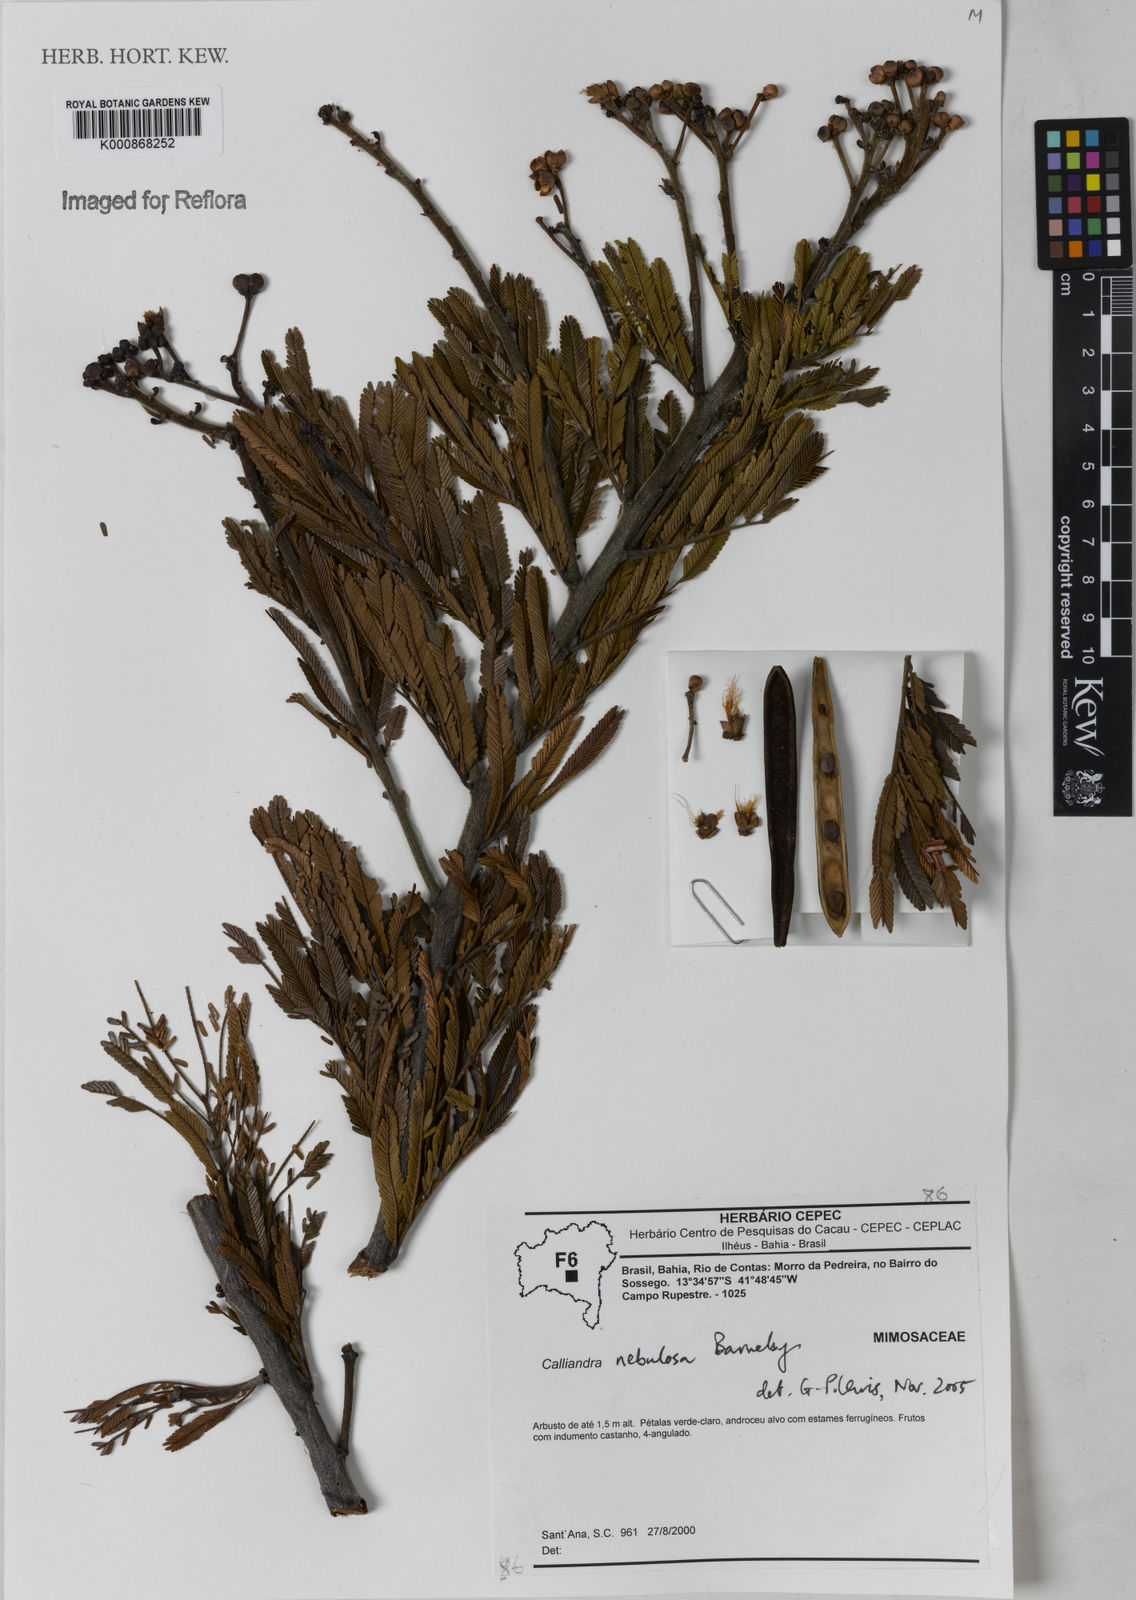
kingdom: Plantae
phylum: Tracheophyta
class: Magnoliopsida
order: Fabales
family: Fabaceae
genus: Calliandra
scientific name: Calliandra nebulosa
